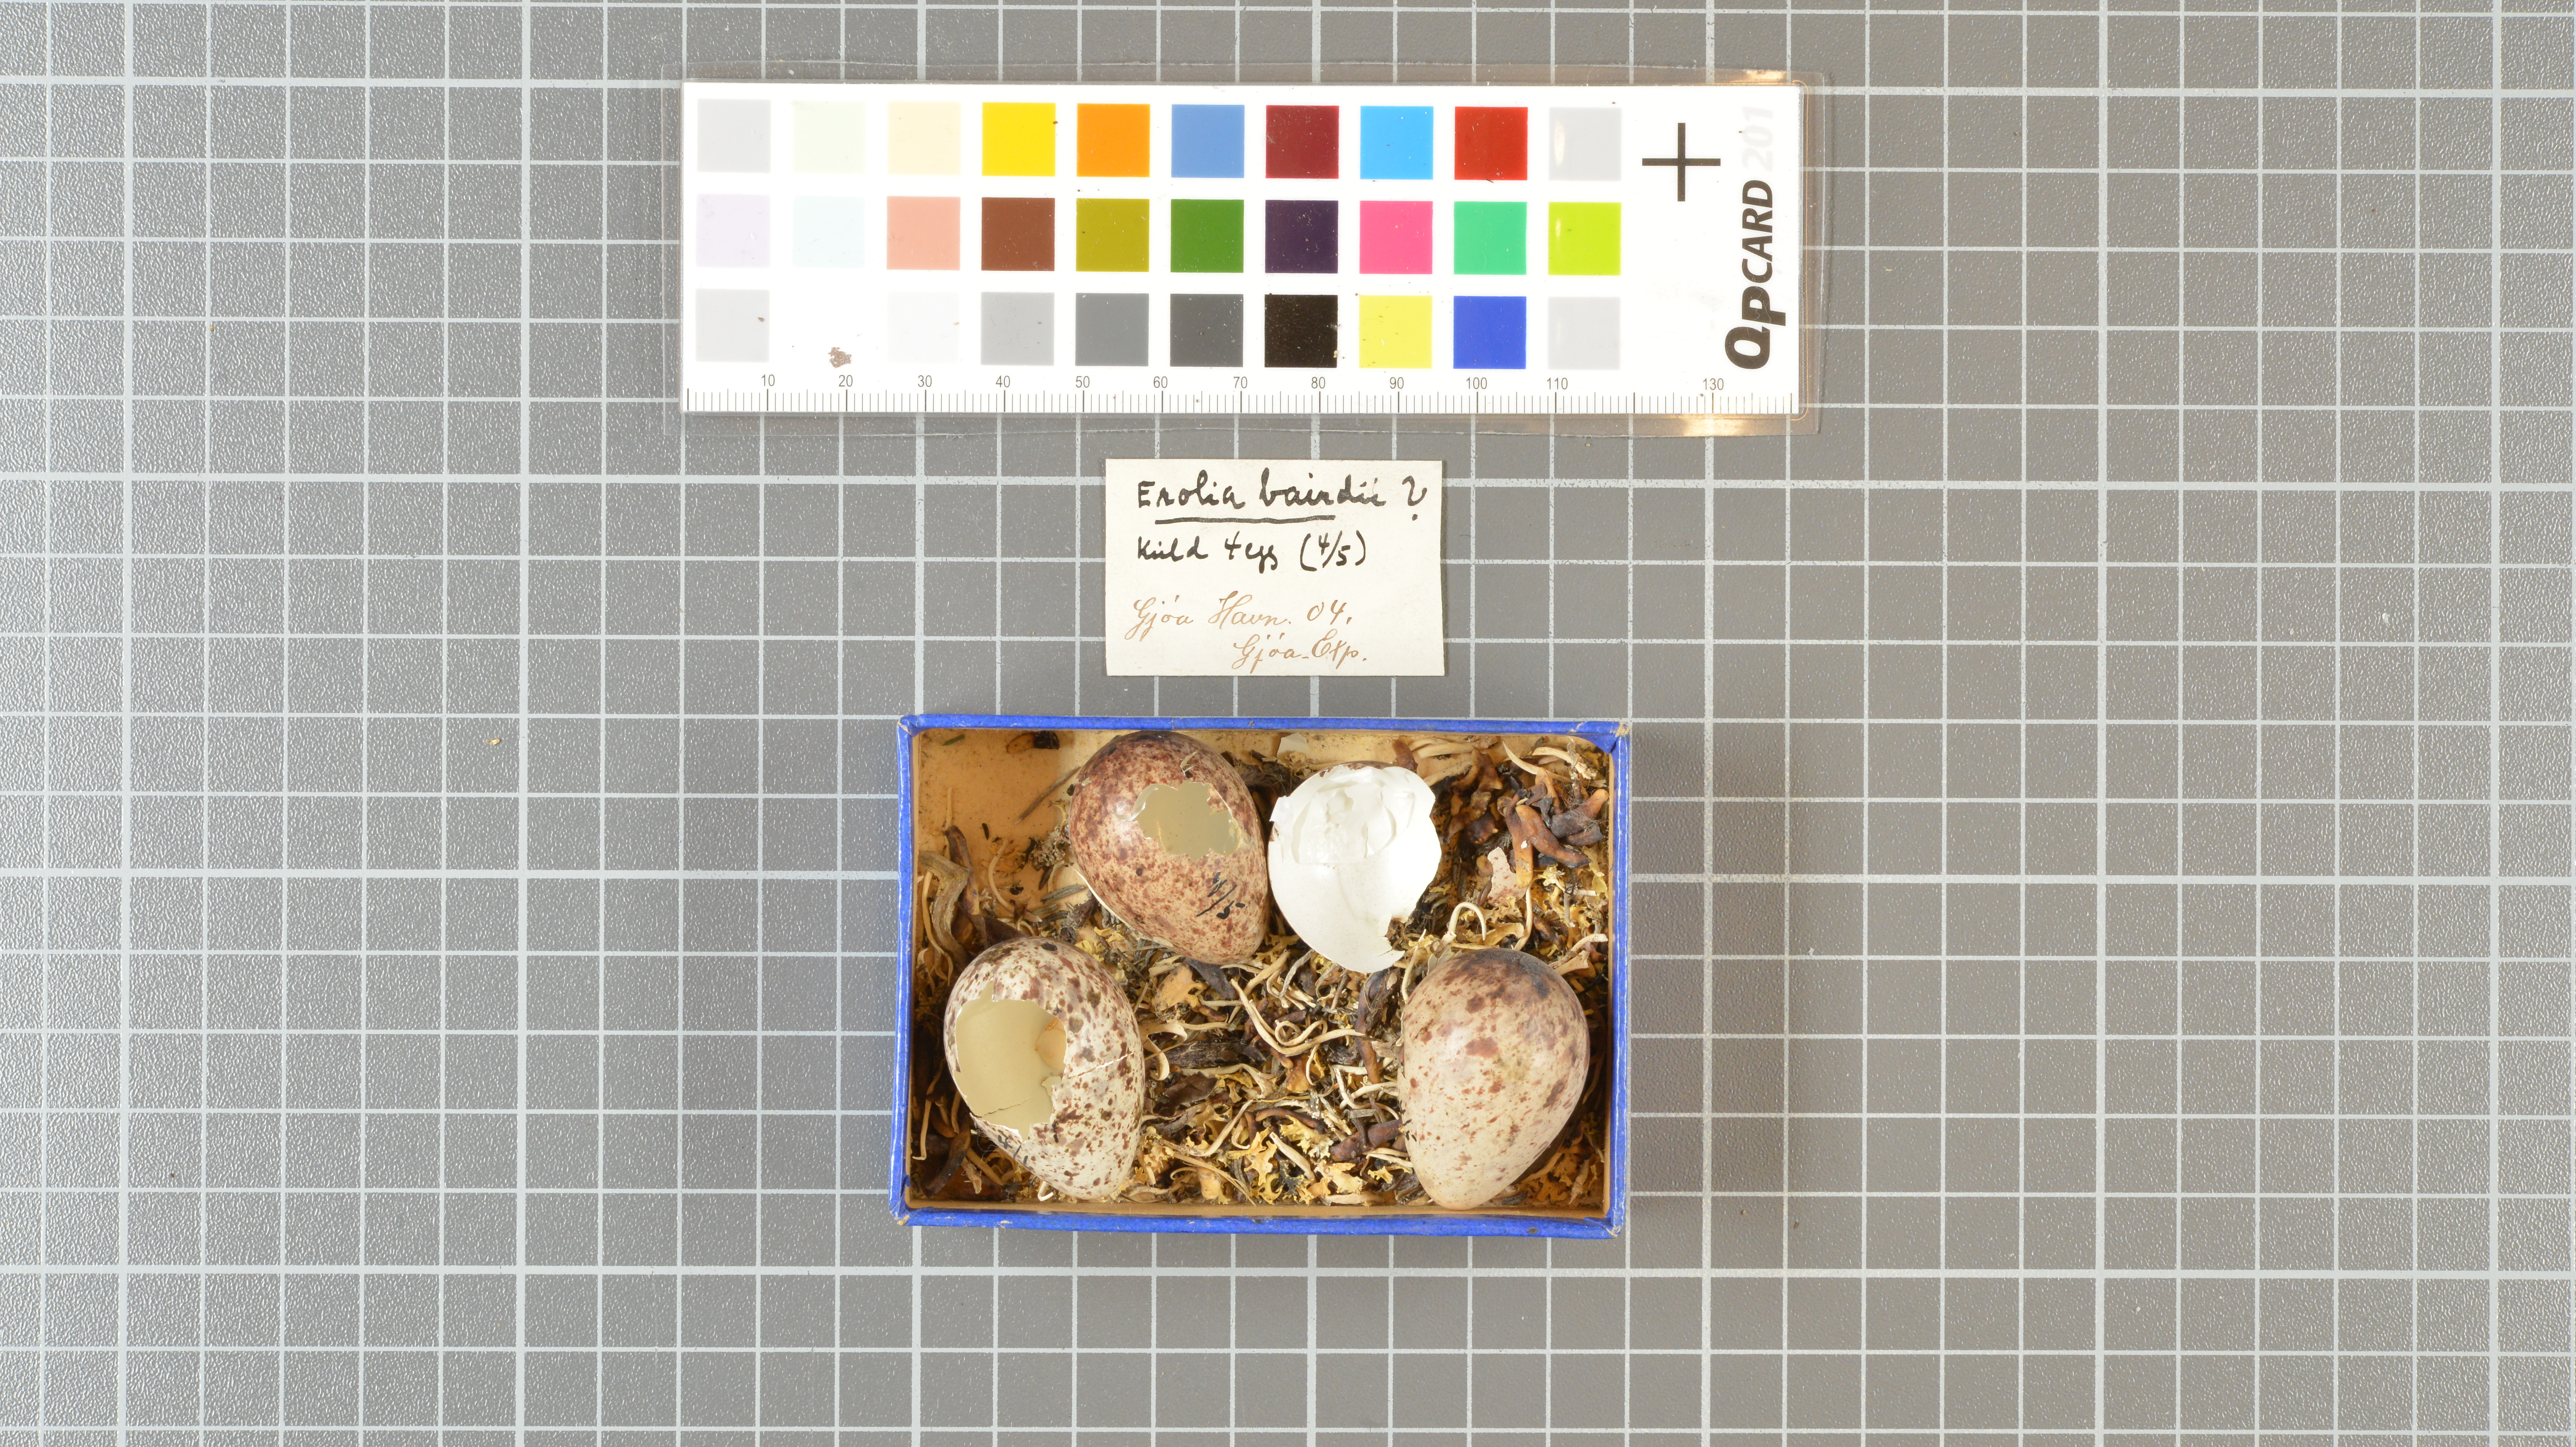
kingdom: Animalia
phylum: Chordata
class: Aves
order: Charadriiformes
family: Scolopacidae
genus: Calidris
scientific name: Calidris bairdii
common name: Baird's sandpiper
